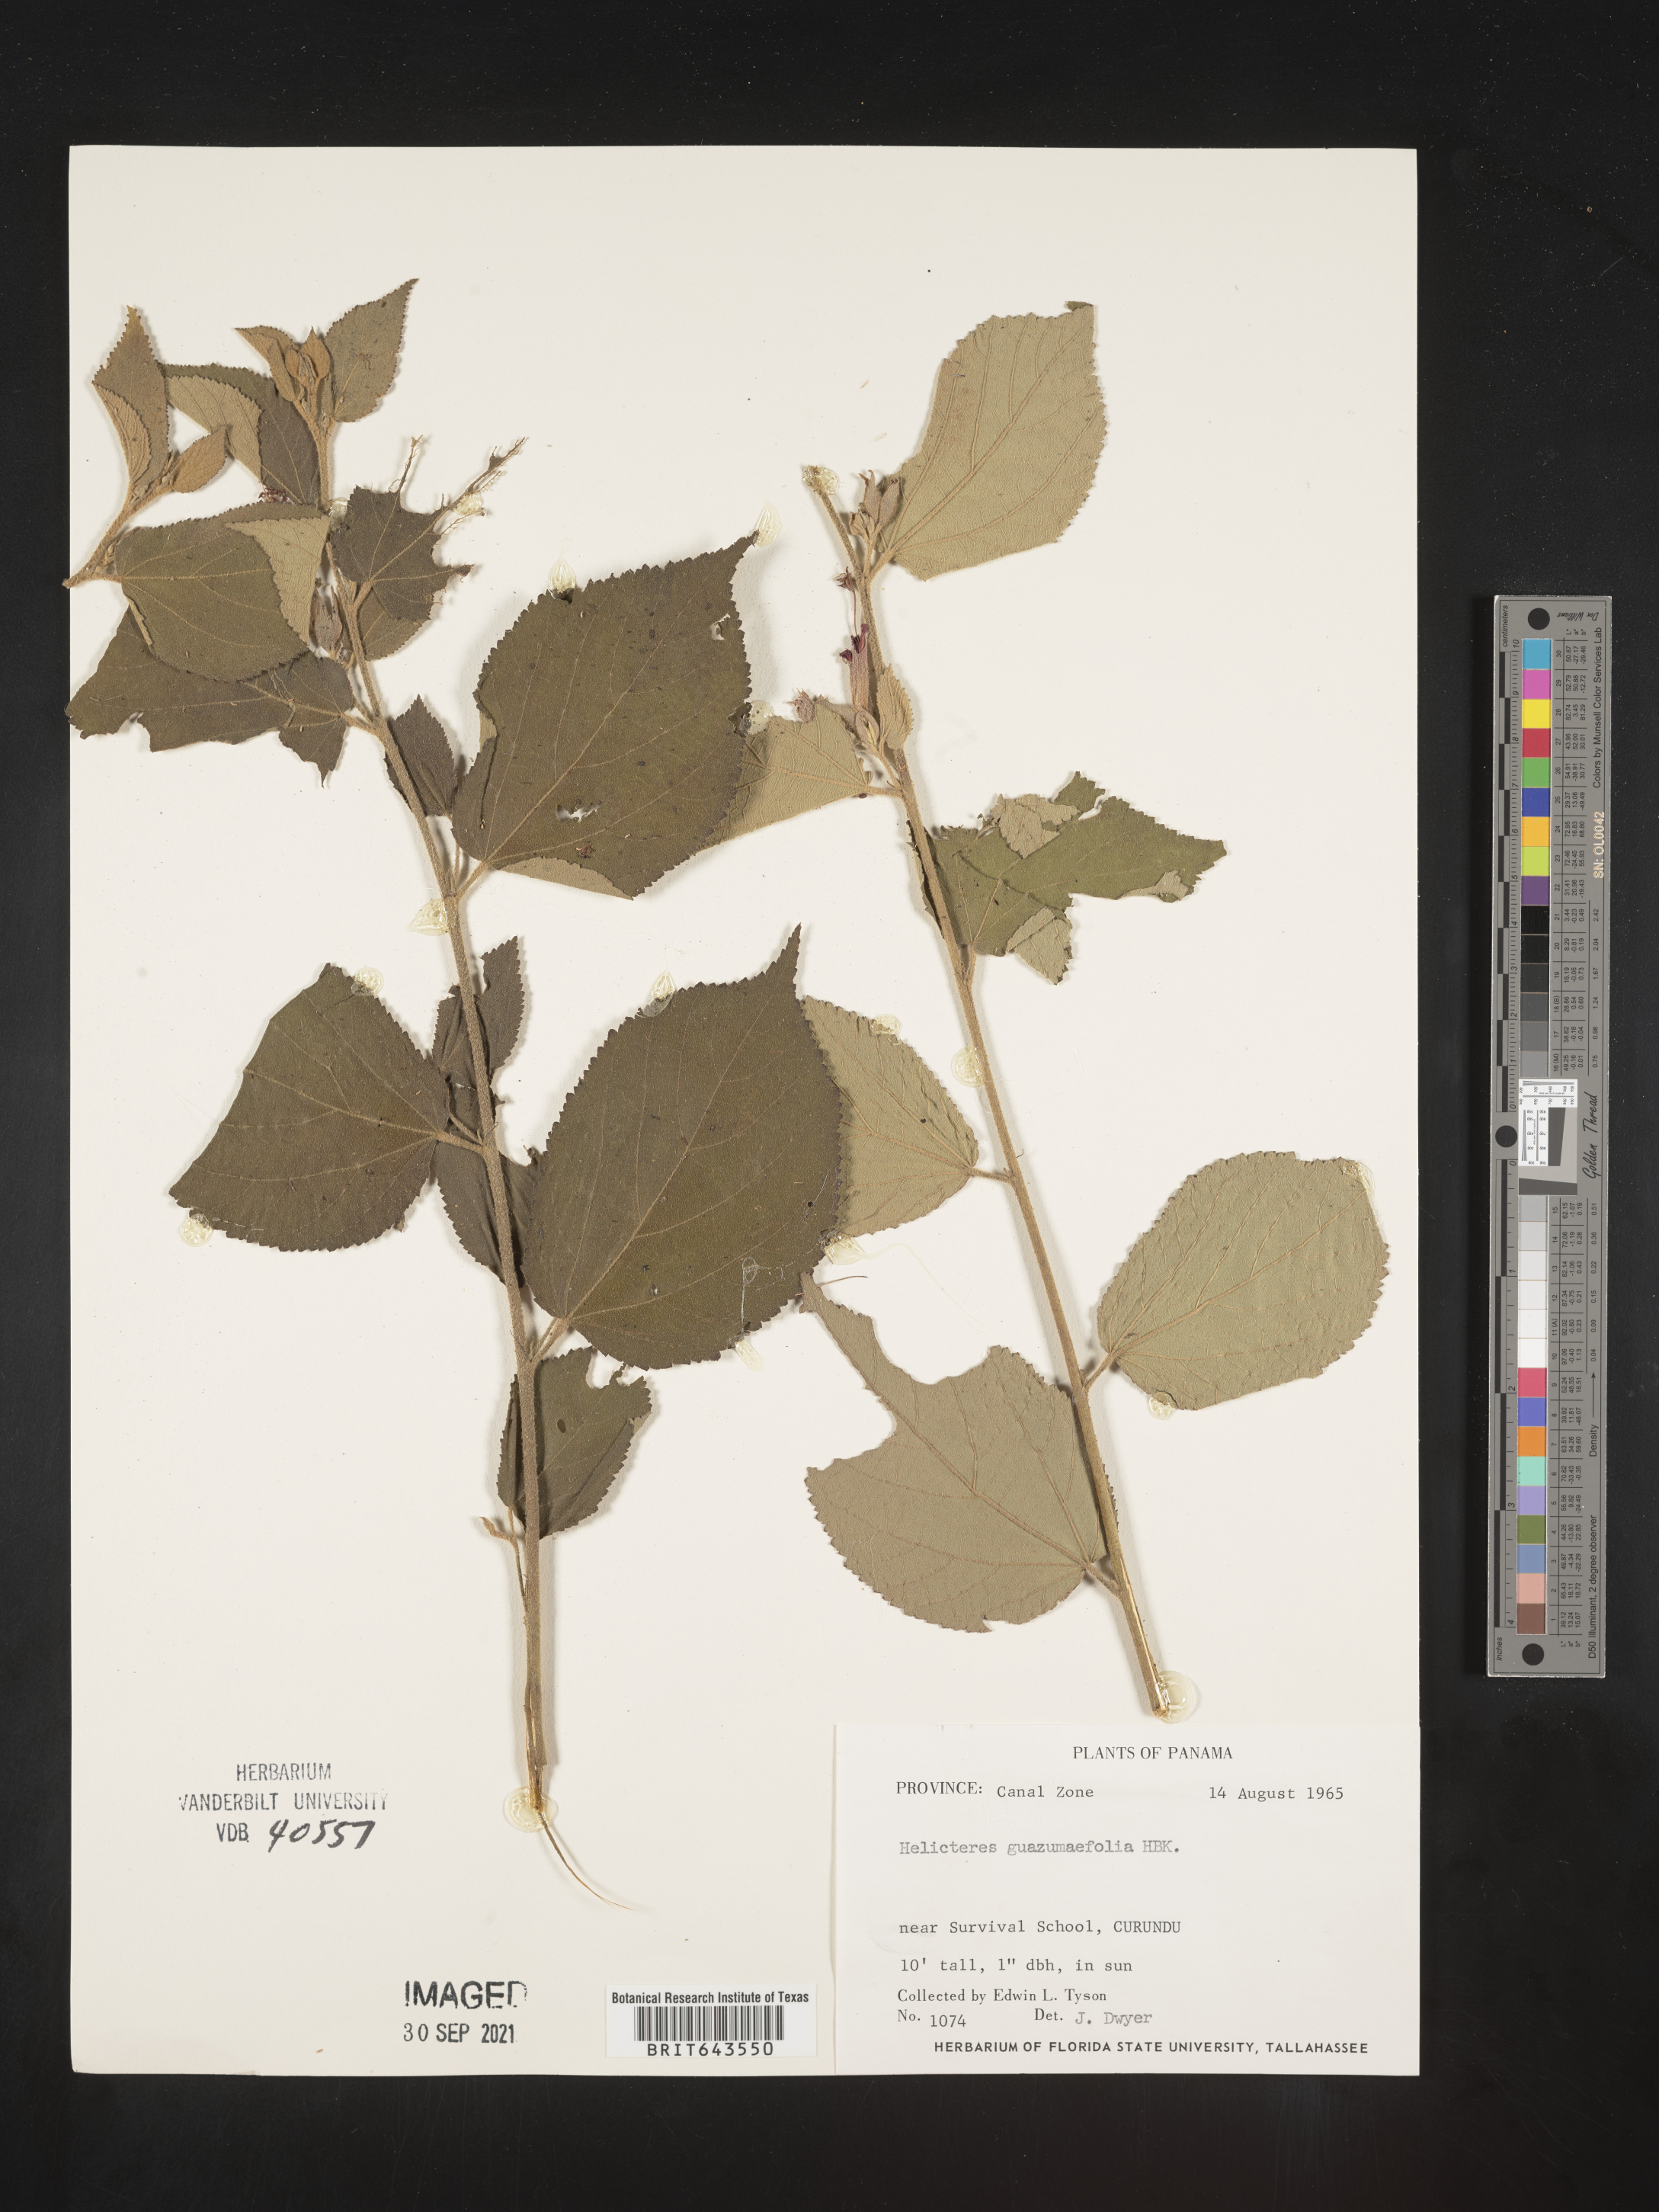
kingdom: Plantae
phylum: Tracheophyta
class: Magnoliopsida
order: Malvales
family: Malvaceae
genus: Helicteres
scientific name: Helicteres
